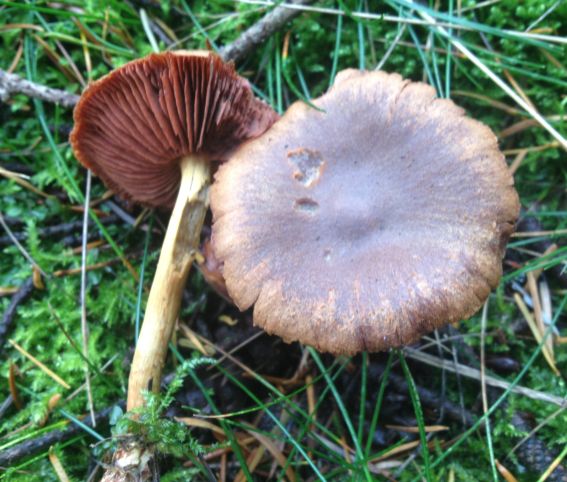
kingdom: Fungi
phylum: Basidiomycota
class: Agaricomycetes
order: Agaricales
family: Cortinariaceae
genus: Cortinarius
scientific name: Cortinarius
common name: cinnoberbladet slørhat
